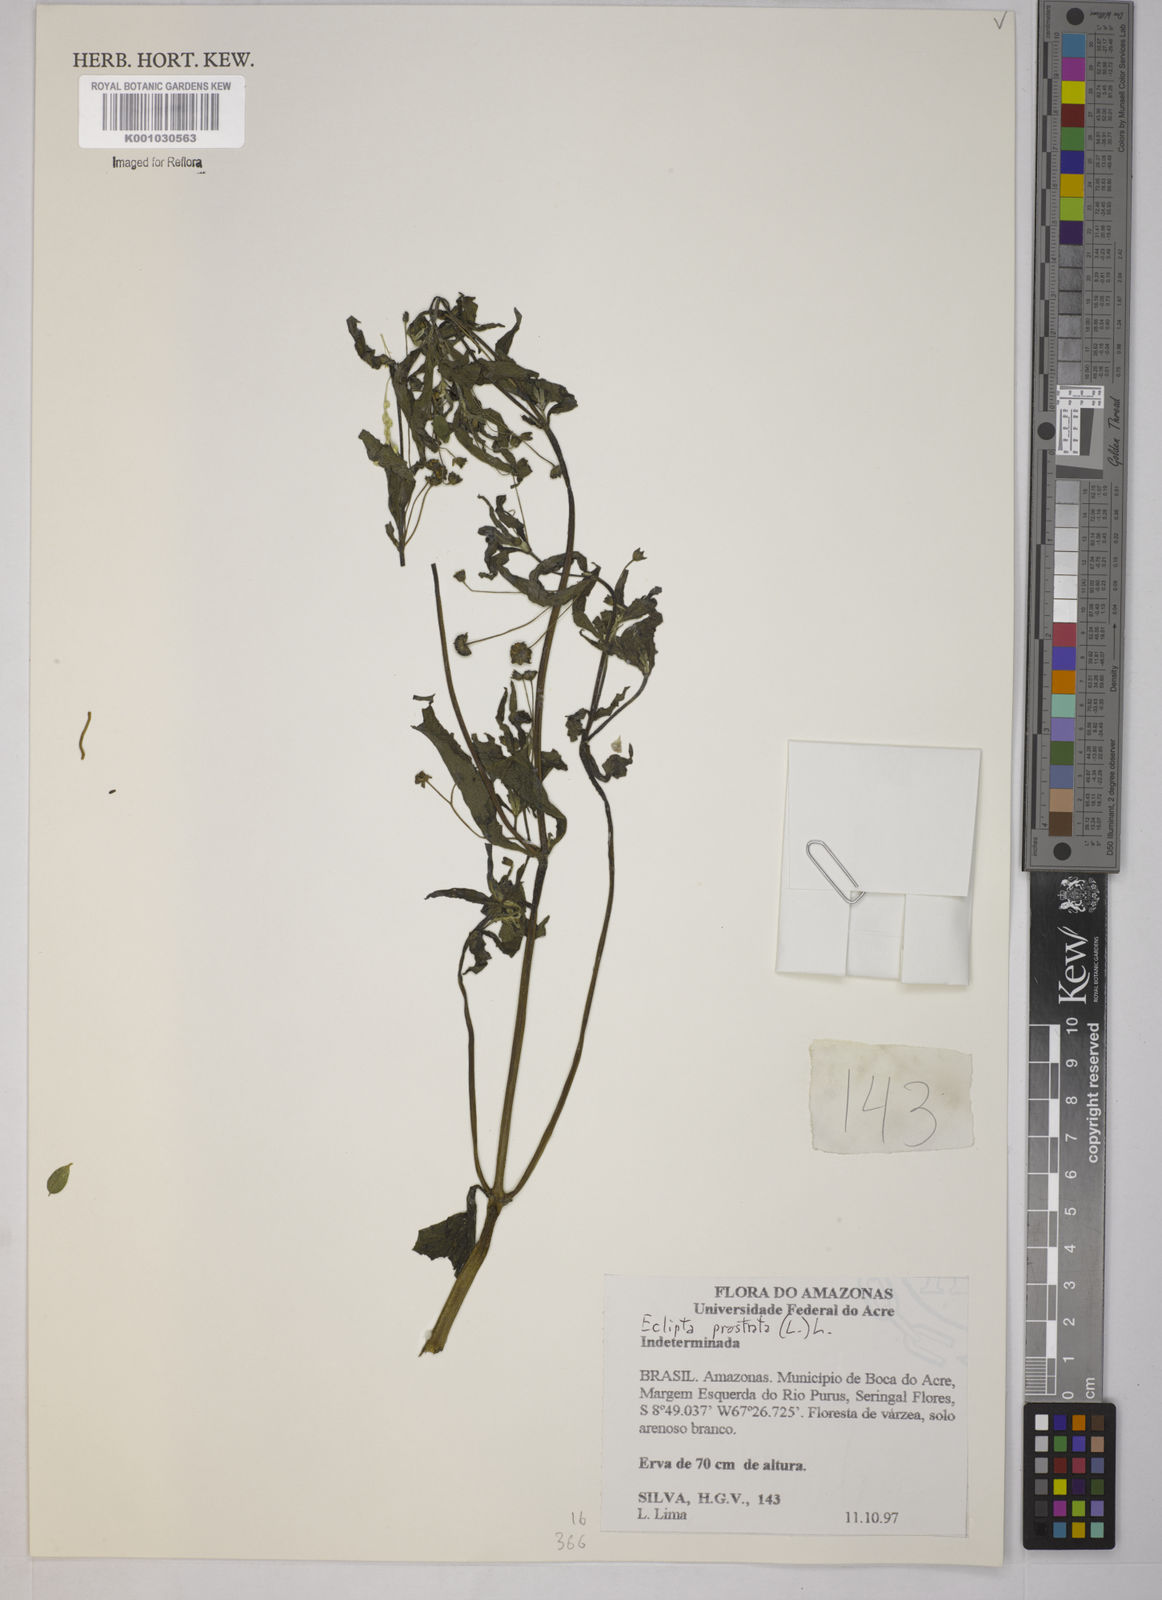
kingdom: Plantae
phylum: Tracheophyta
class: Magnoliopsida
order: Asterales
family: Asteraceae
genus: Eclipta
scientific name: Eclipta prostrata
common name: False daisy
